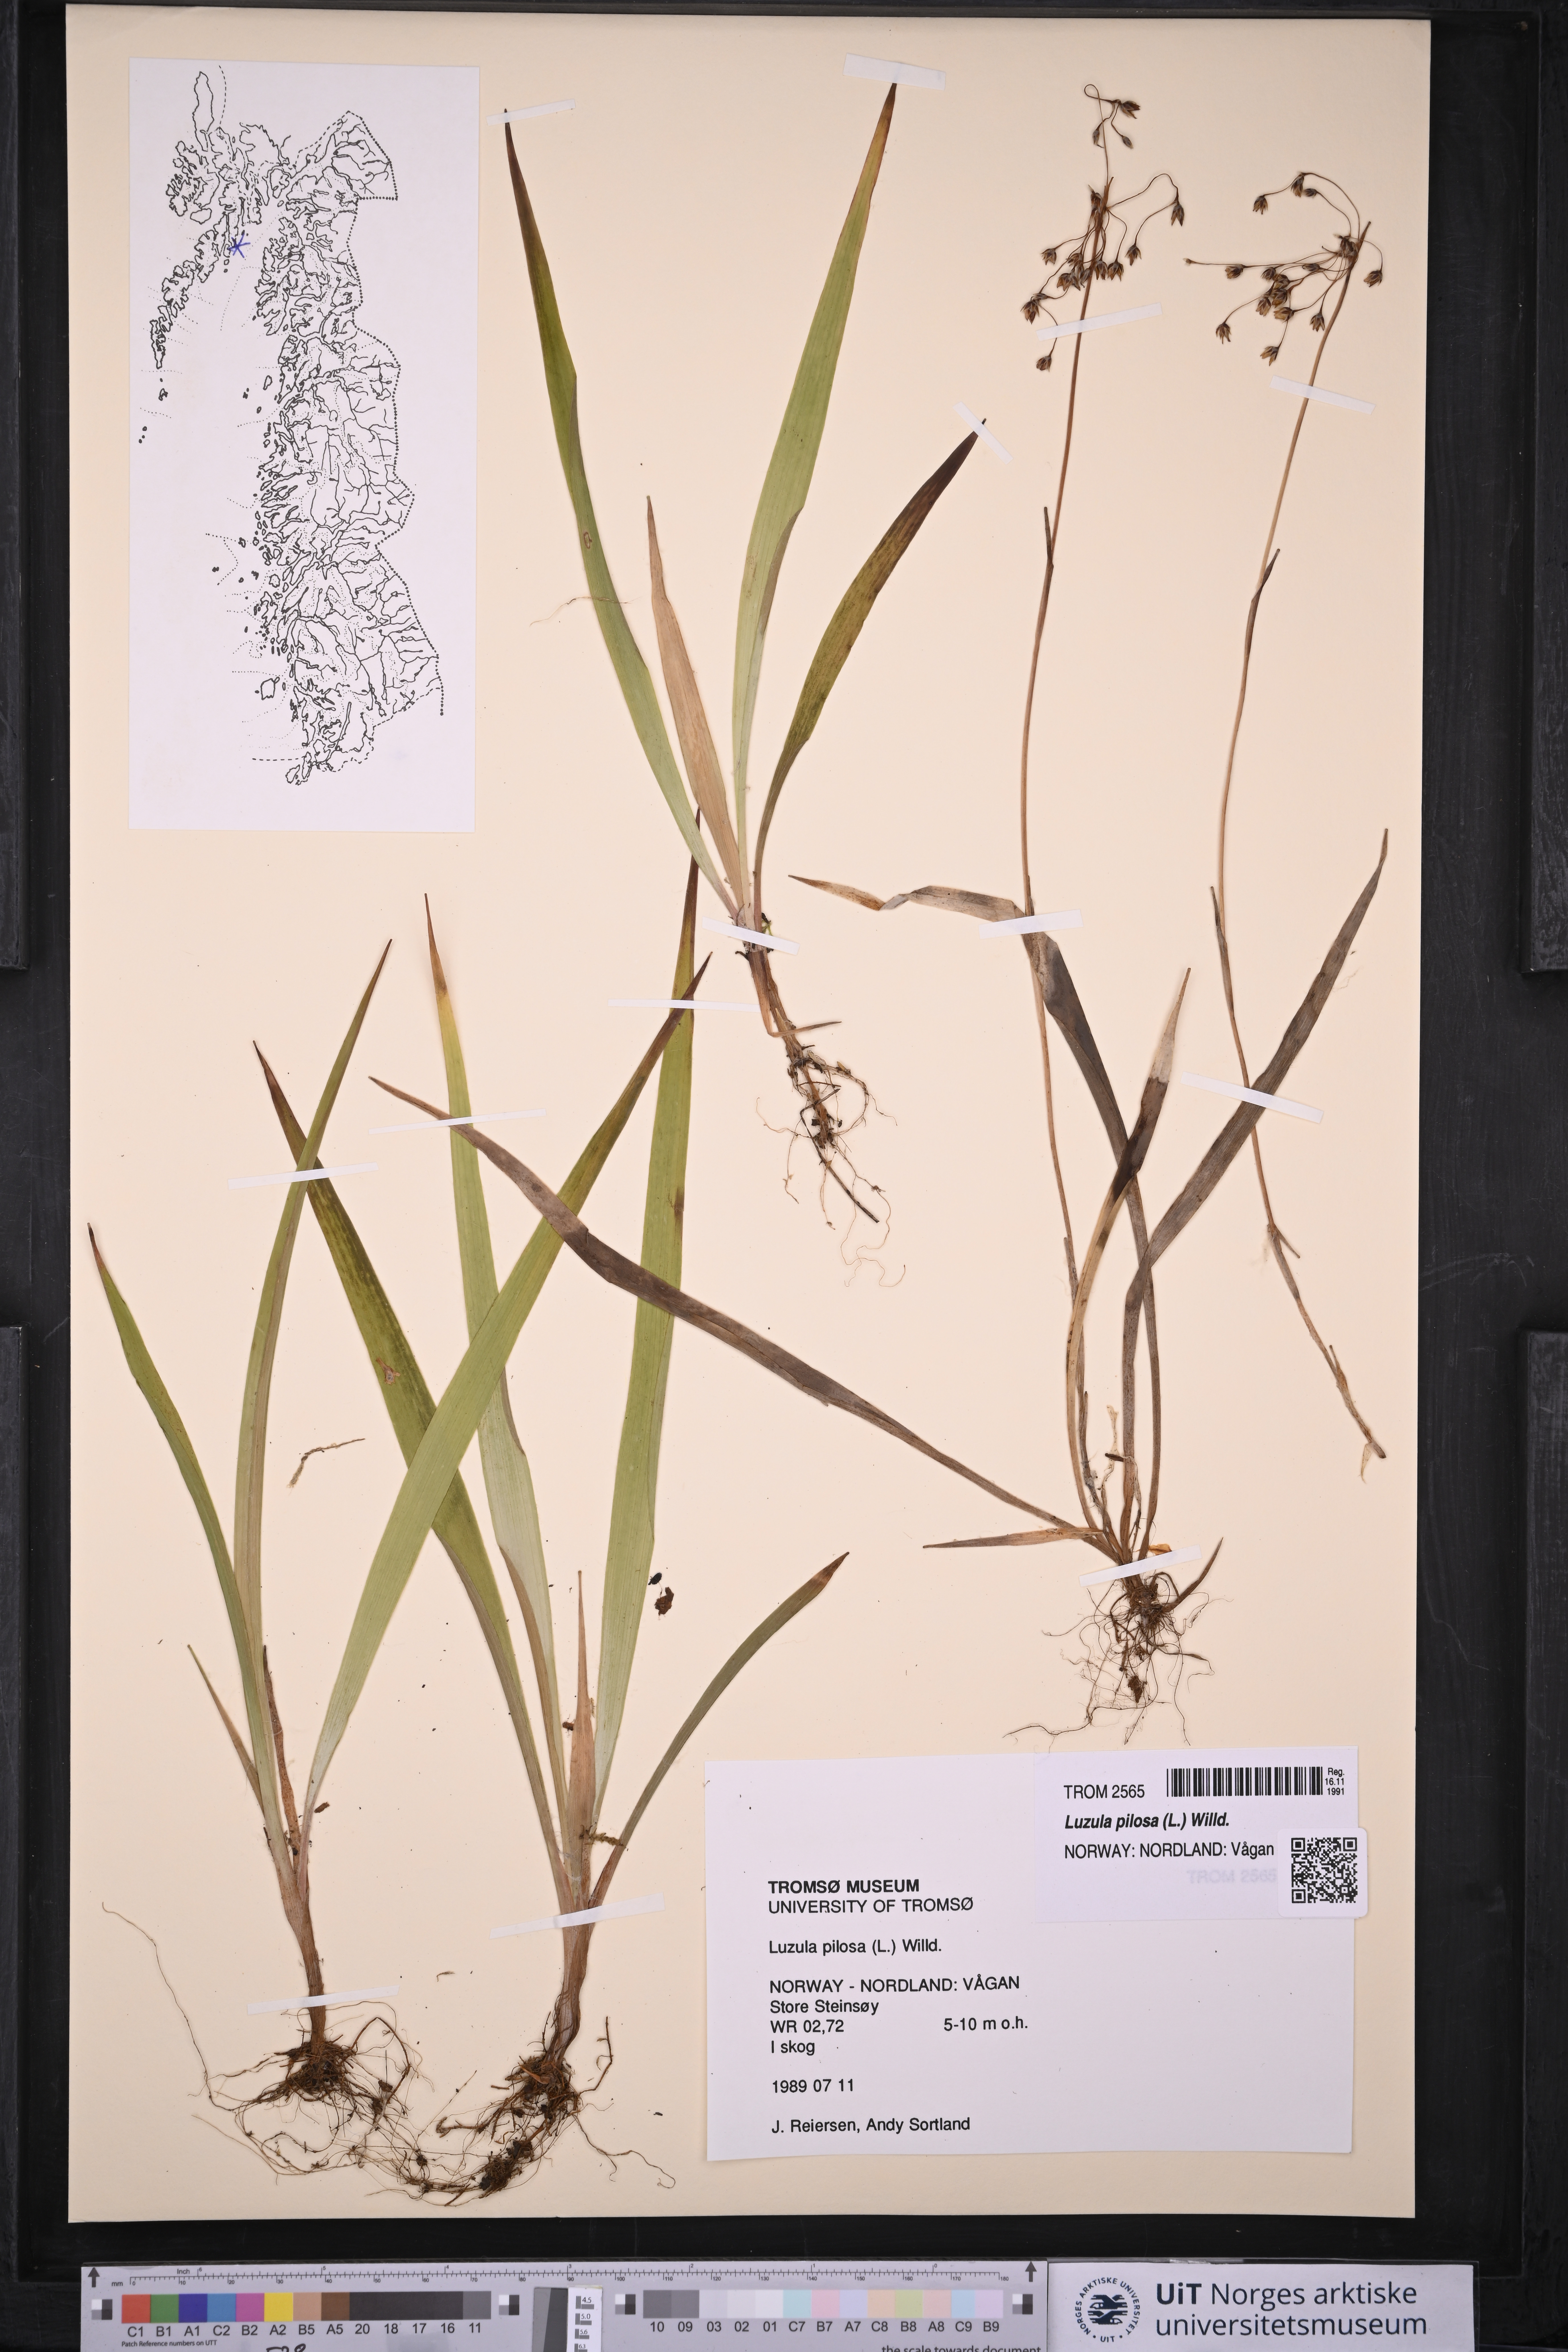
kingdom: Plantae
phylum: Tracheophyta
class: Liliopsida
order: Poales
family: Juncaceae
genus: Luzula
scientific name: Luzula pilosa
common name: Hairy wood-rush
